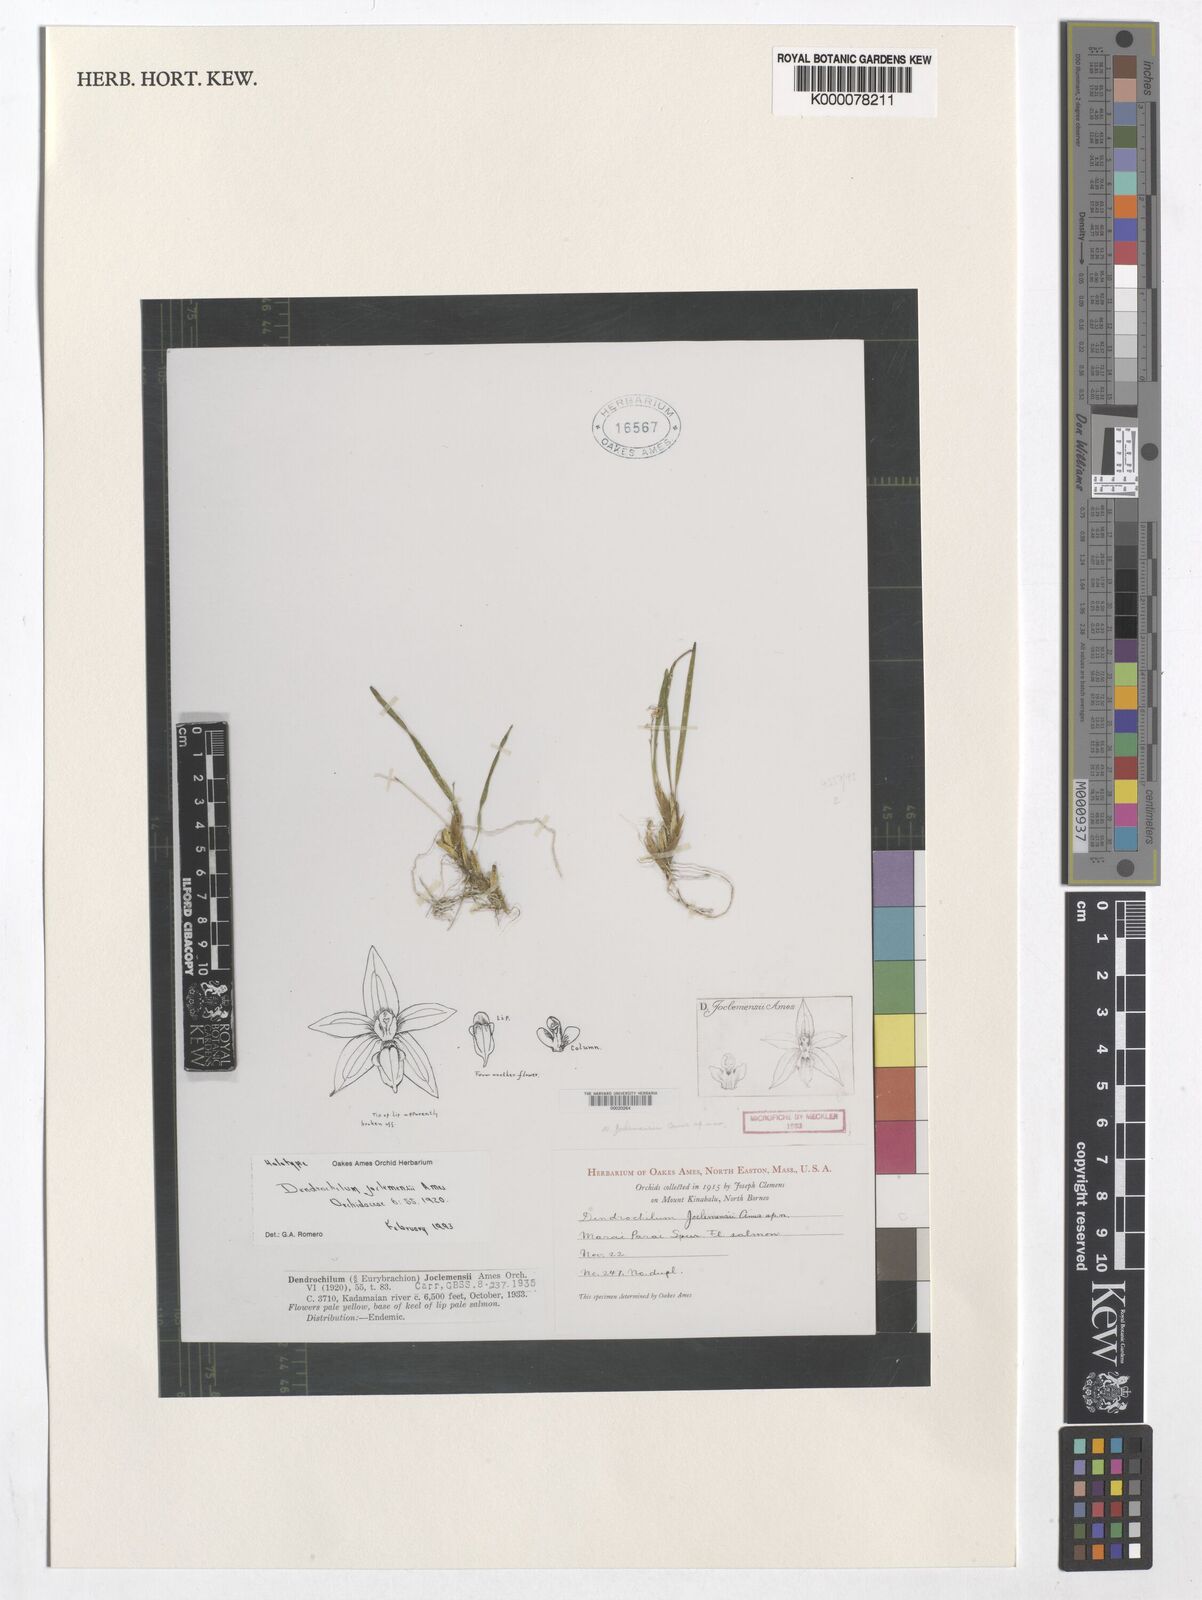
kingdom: Plantae
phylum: Tracheophyta
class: Liliopsida
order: Asparagales
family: Orchidaceae
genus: Coelogyne
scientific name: Coelogyne joclemensii
